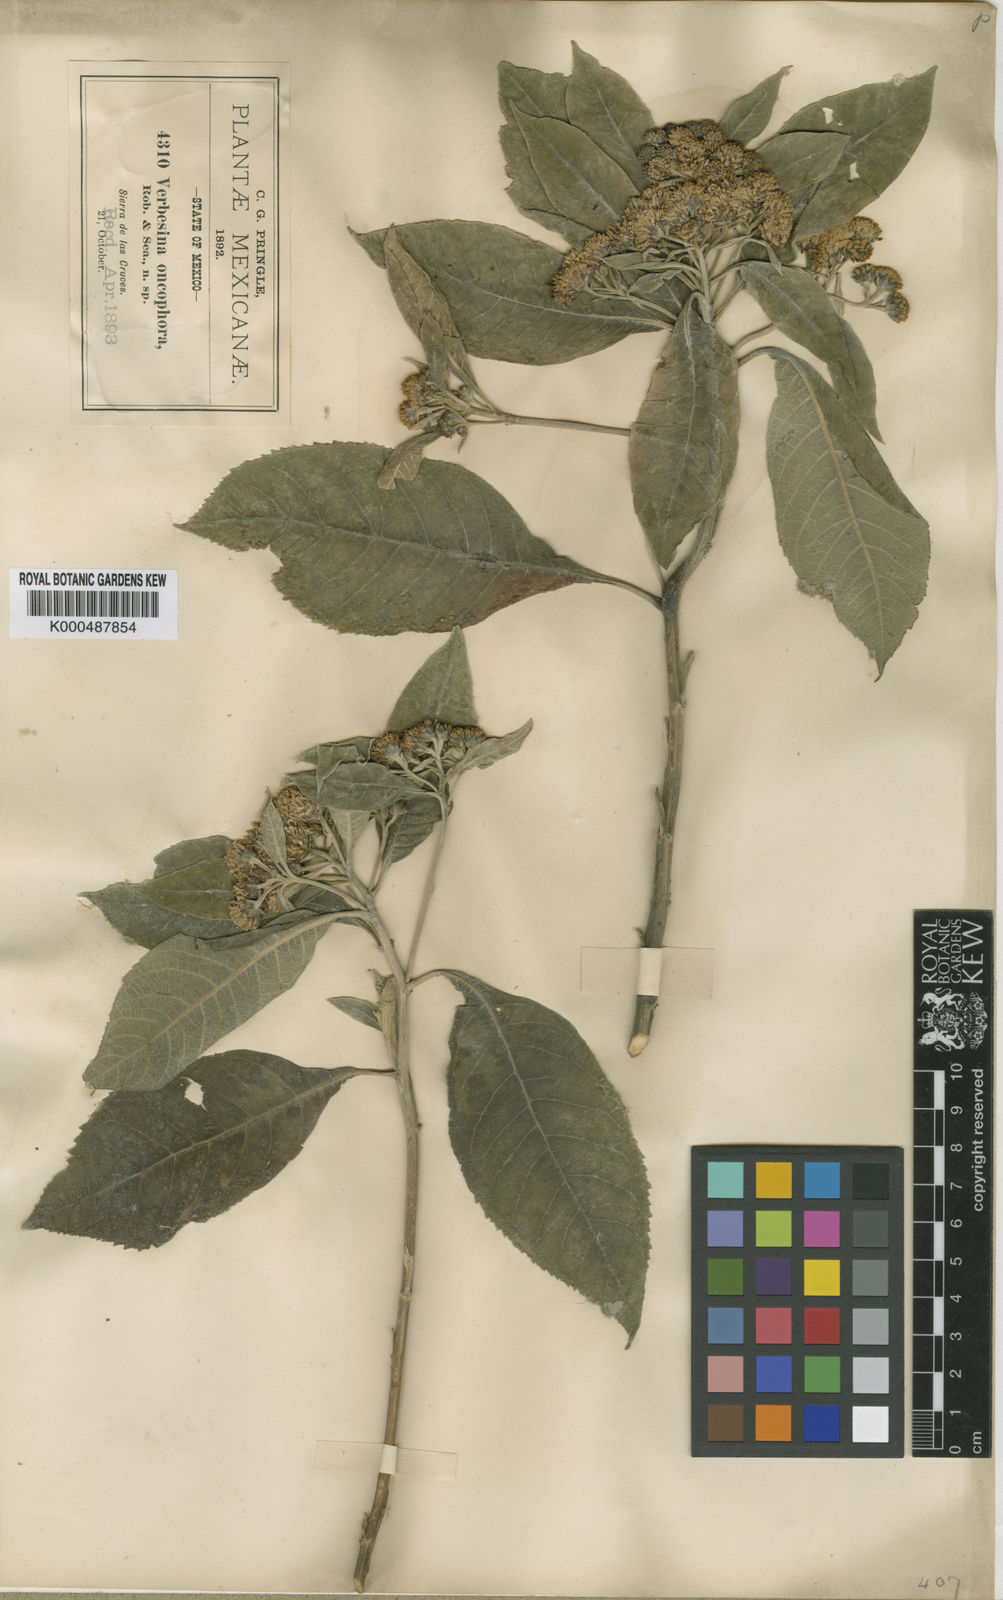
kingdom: Plantae
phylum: Tracheophyta
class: Magnoliopsida
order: Asterales
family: Asteraceae
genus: Verbesina
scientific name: Verbesina oncophora
